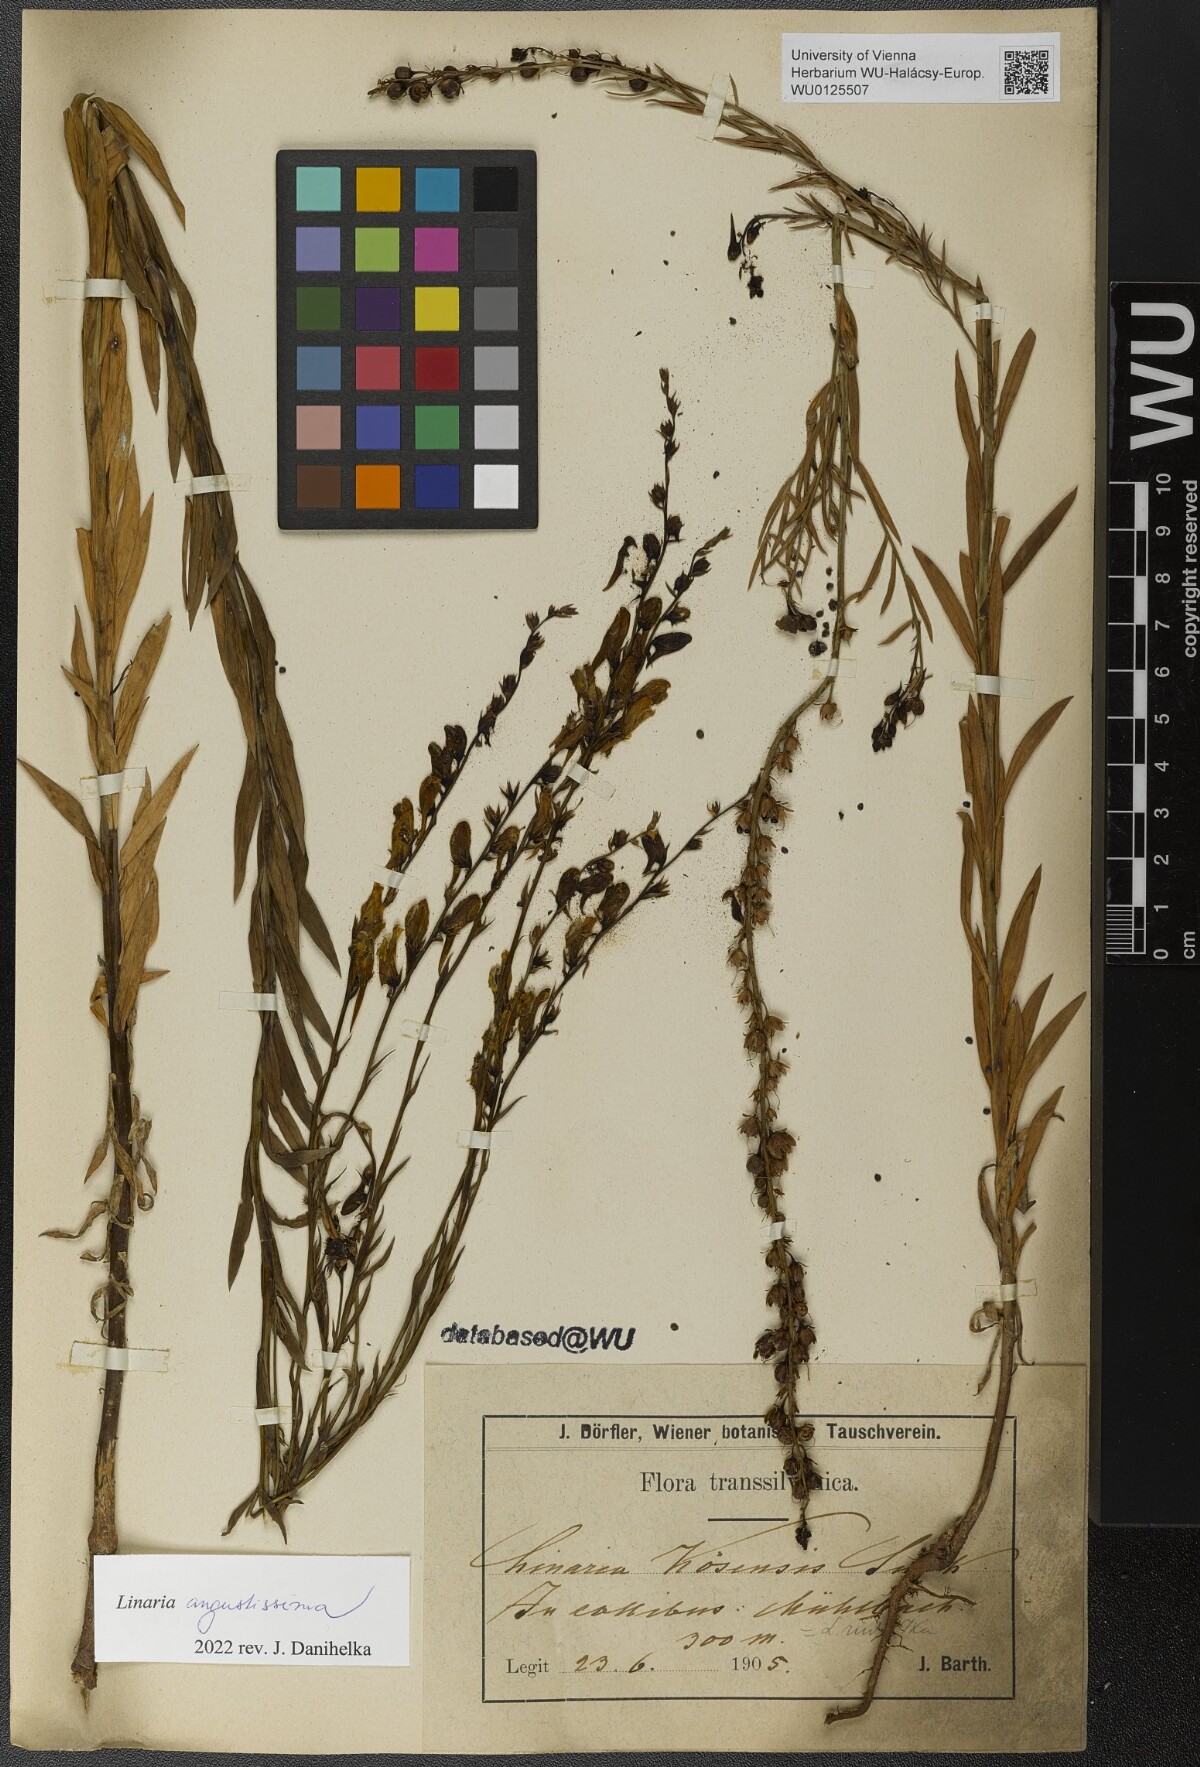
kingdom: Plantae
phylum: Tracheophyta
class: Magnoliopsida
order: Lamiales
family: Plantaginaceae
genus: Linaria
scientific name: Linaria angustissima
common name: Italian toadflax
